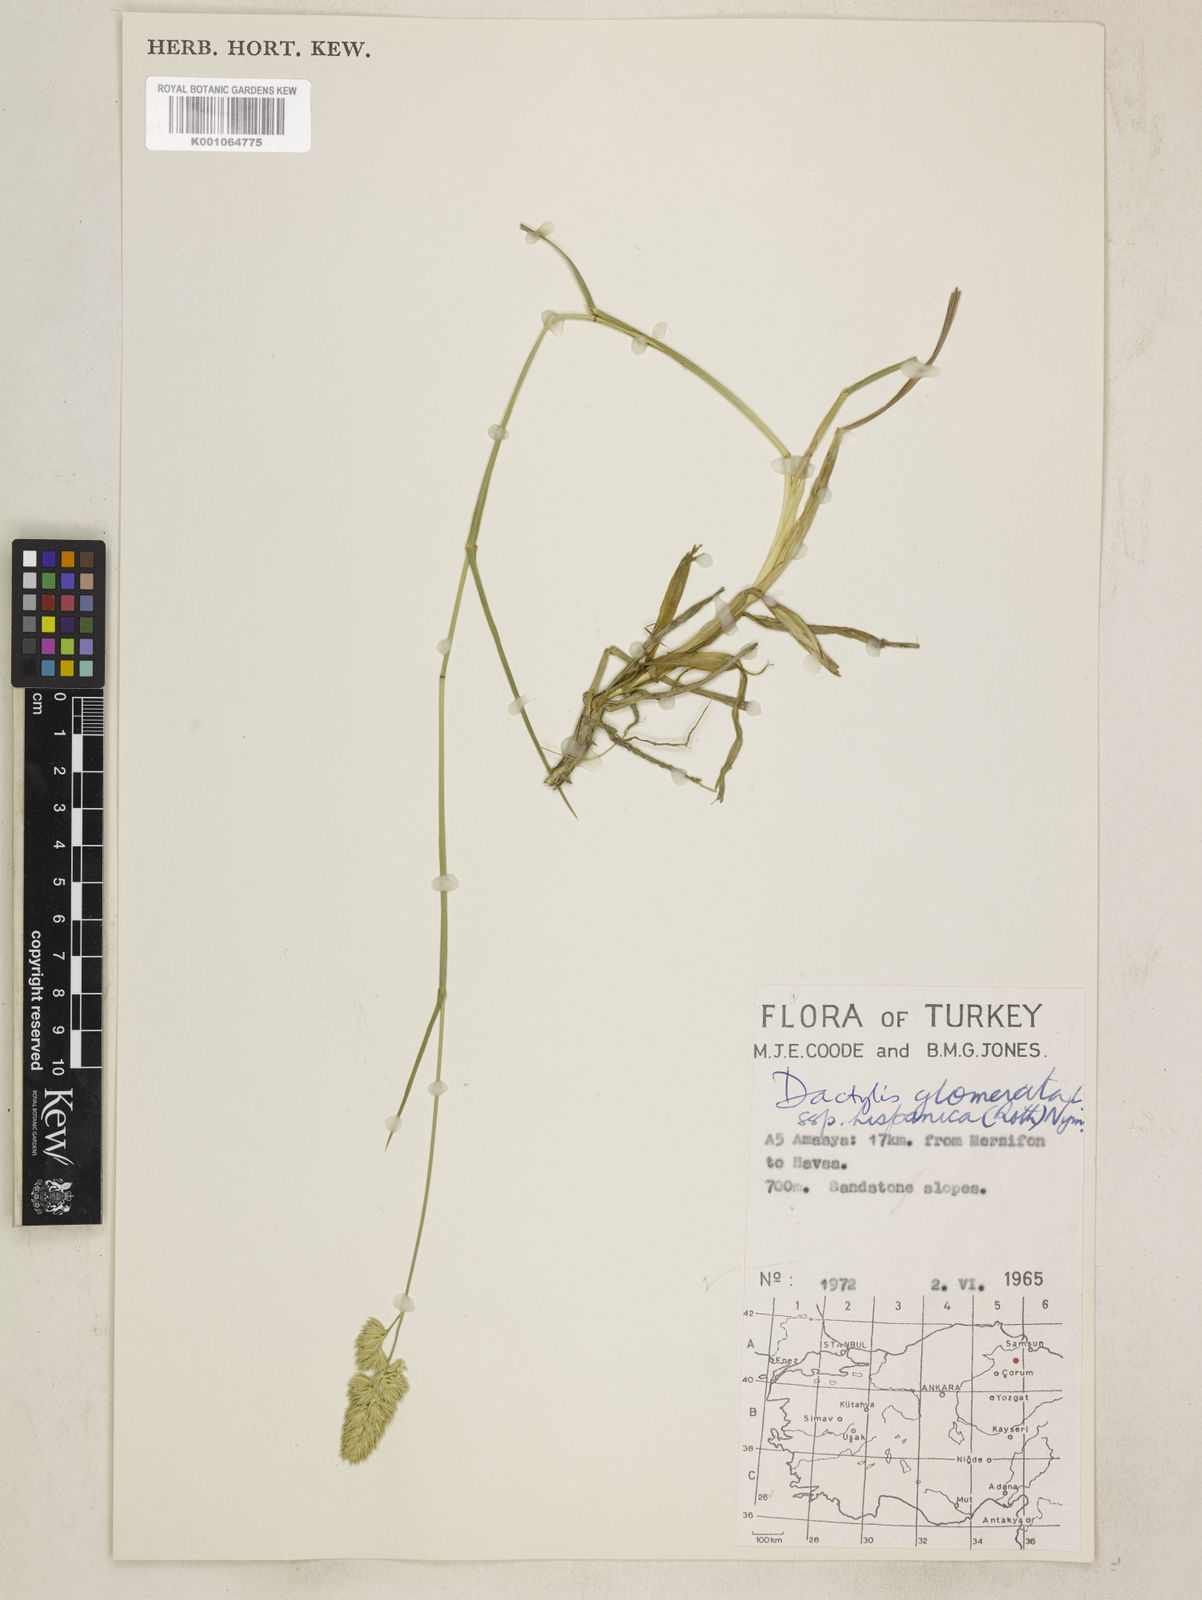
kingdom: Plantae
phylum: Tracheophyta
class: Liliopsida
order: Poales
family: Poaceae
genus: Dactylis
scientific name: Dactylis glomerata
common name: Orchardgrass
